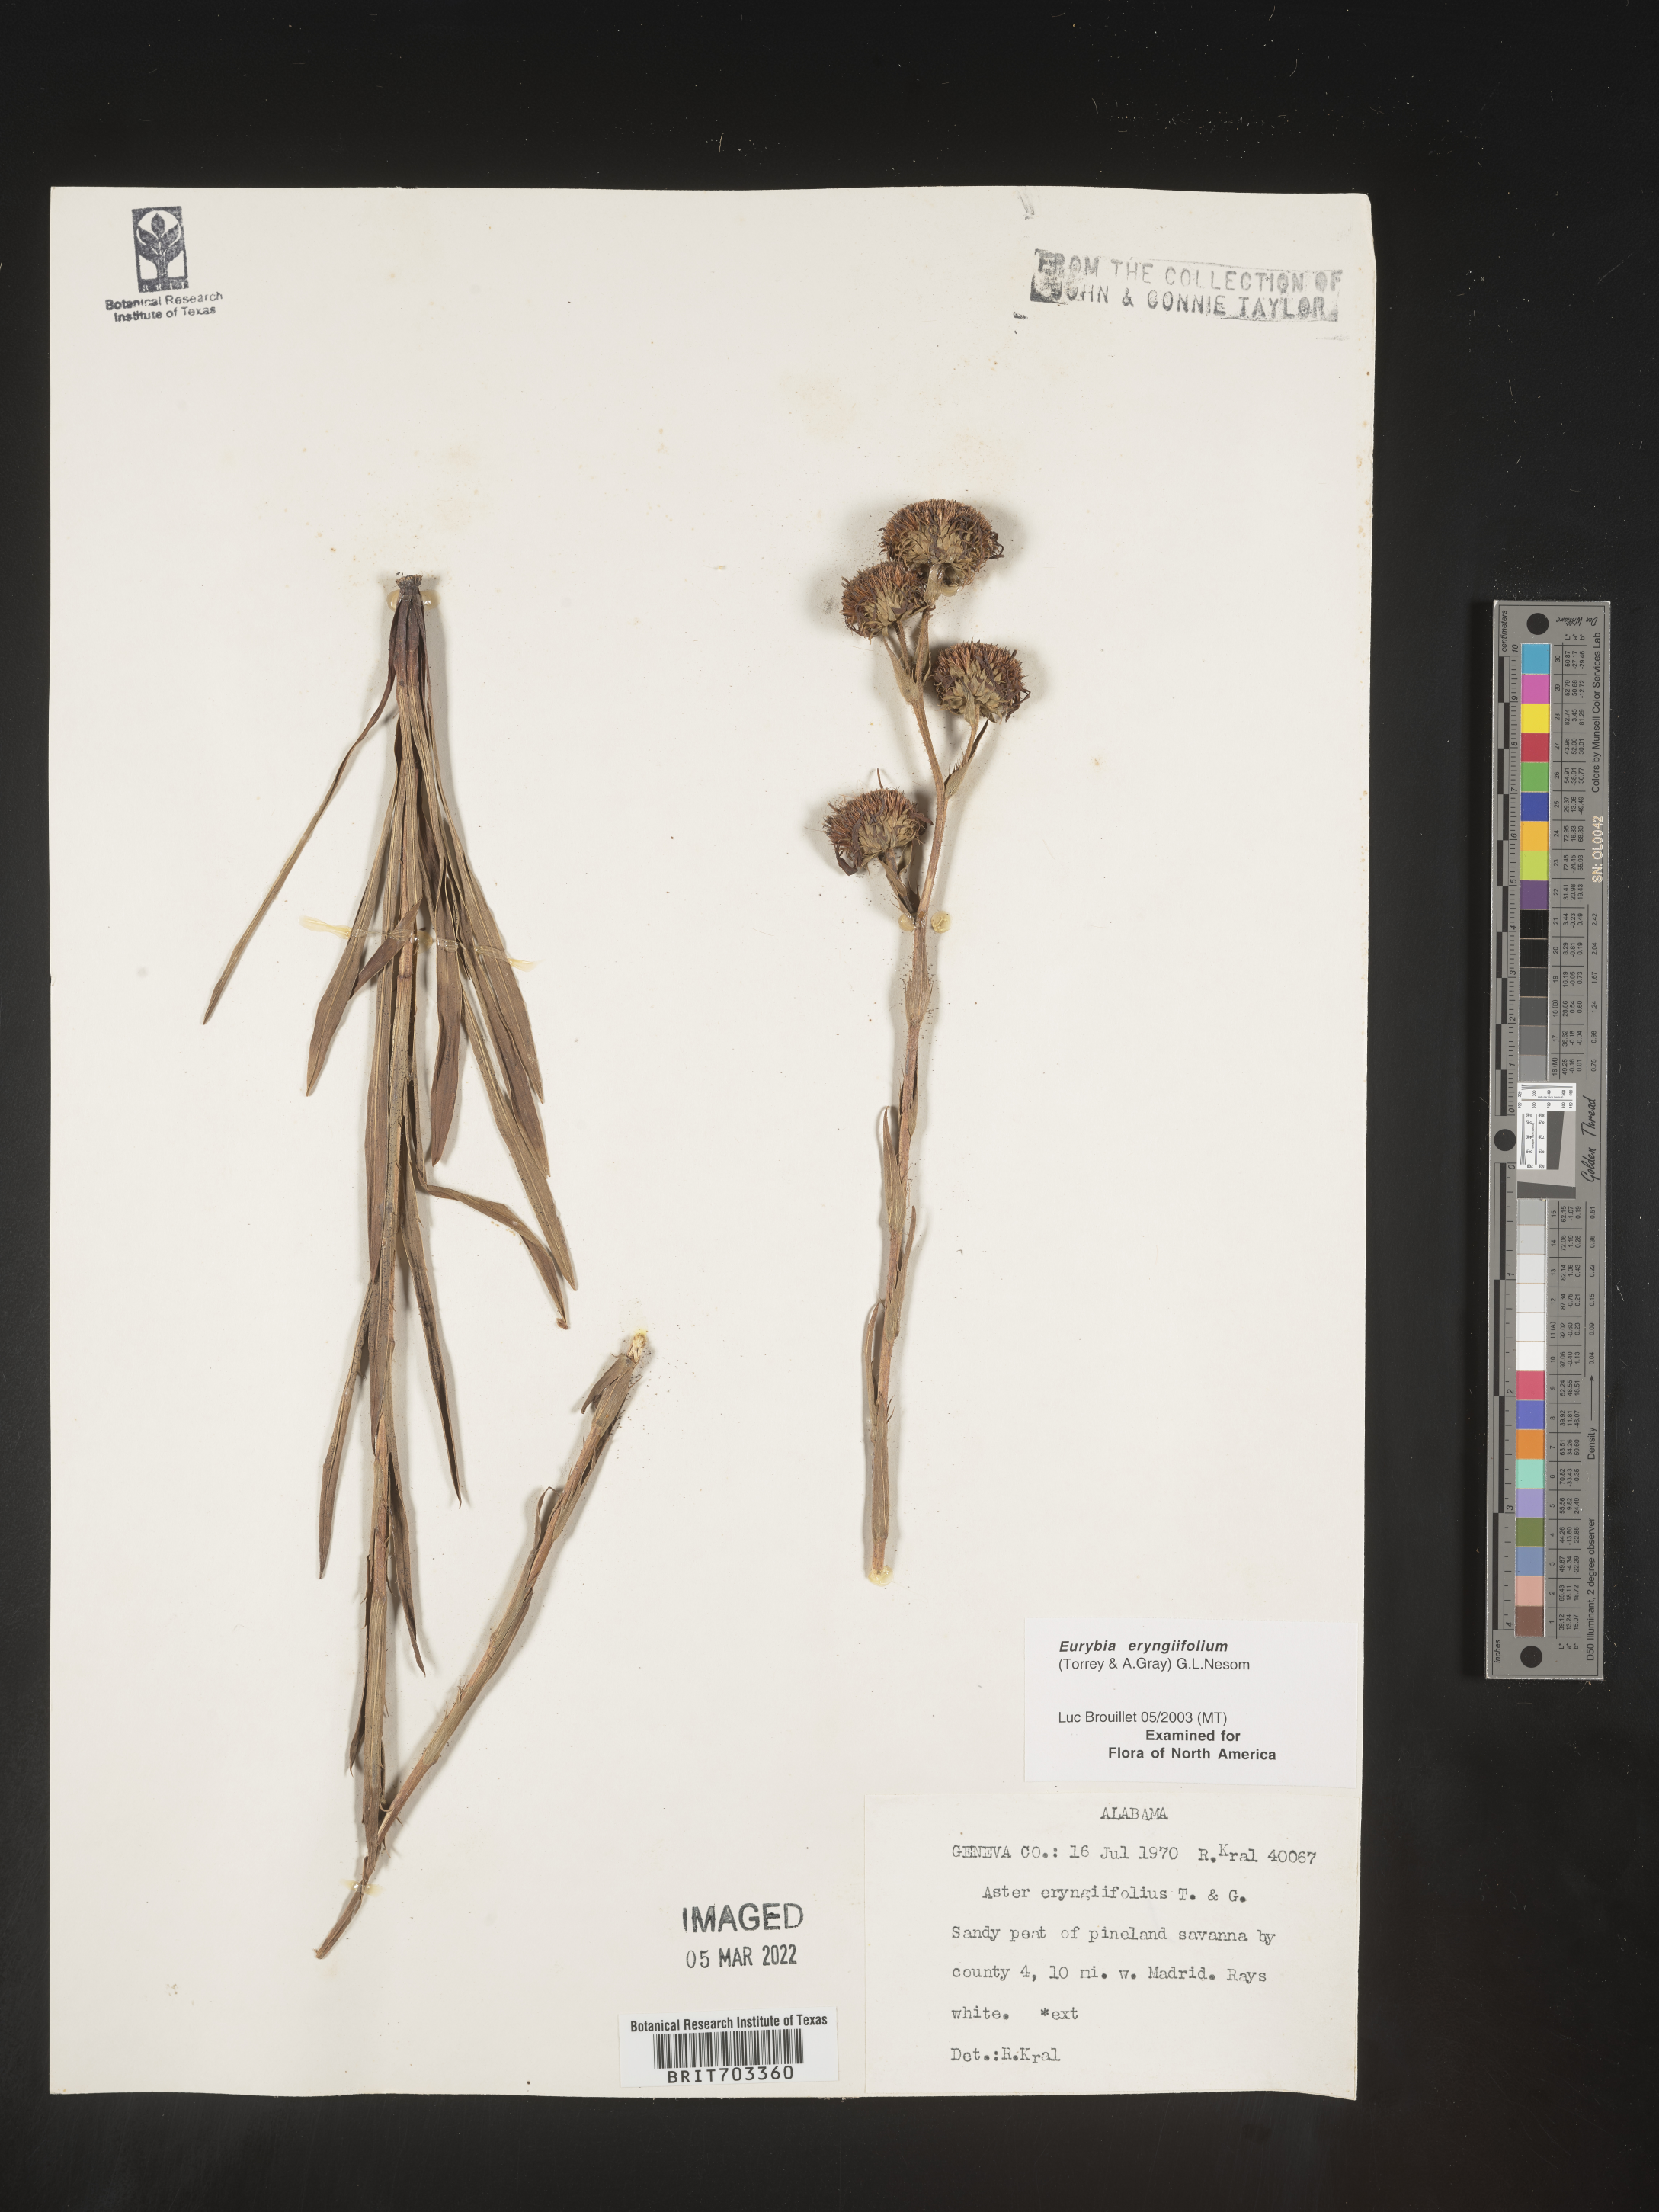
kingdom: Plantae
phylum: Tracheophyta
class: Magnoliopsida
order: Asterales
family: Asteraceae
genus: Eurybia
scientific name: Eurybia eryngiifolia
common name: Thistle-leaf aster
